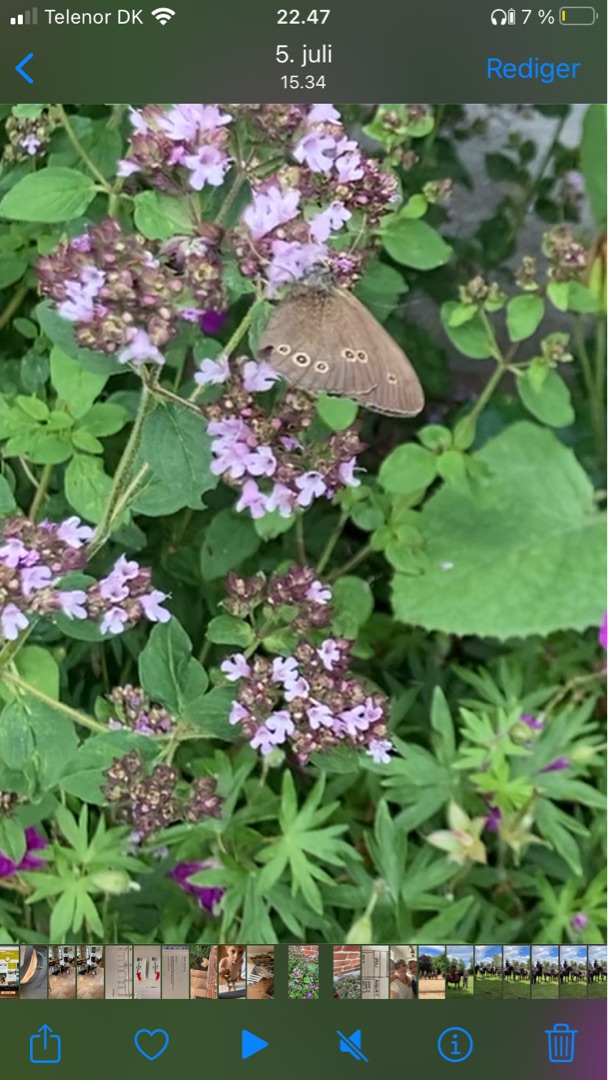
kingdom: Animalia
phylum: Arthropoda
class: Insecta
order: Lepidoptera
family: Nymphalidae
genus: Aphantopus
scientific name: Aphantopus hyperantus
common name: Engrandøje
